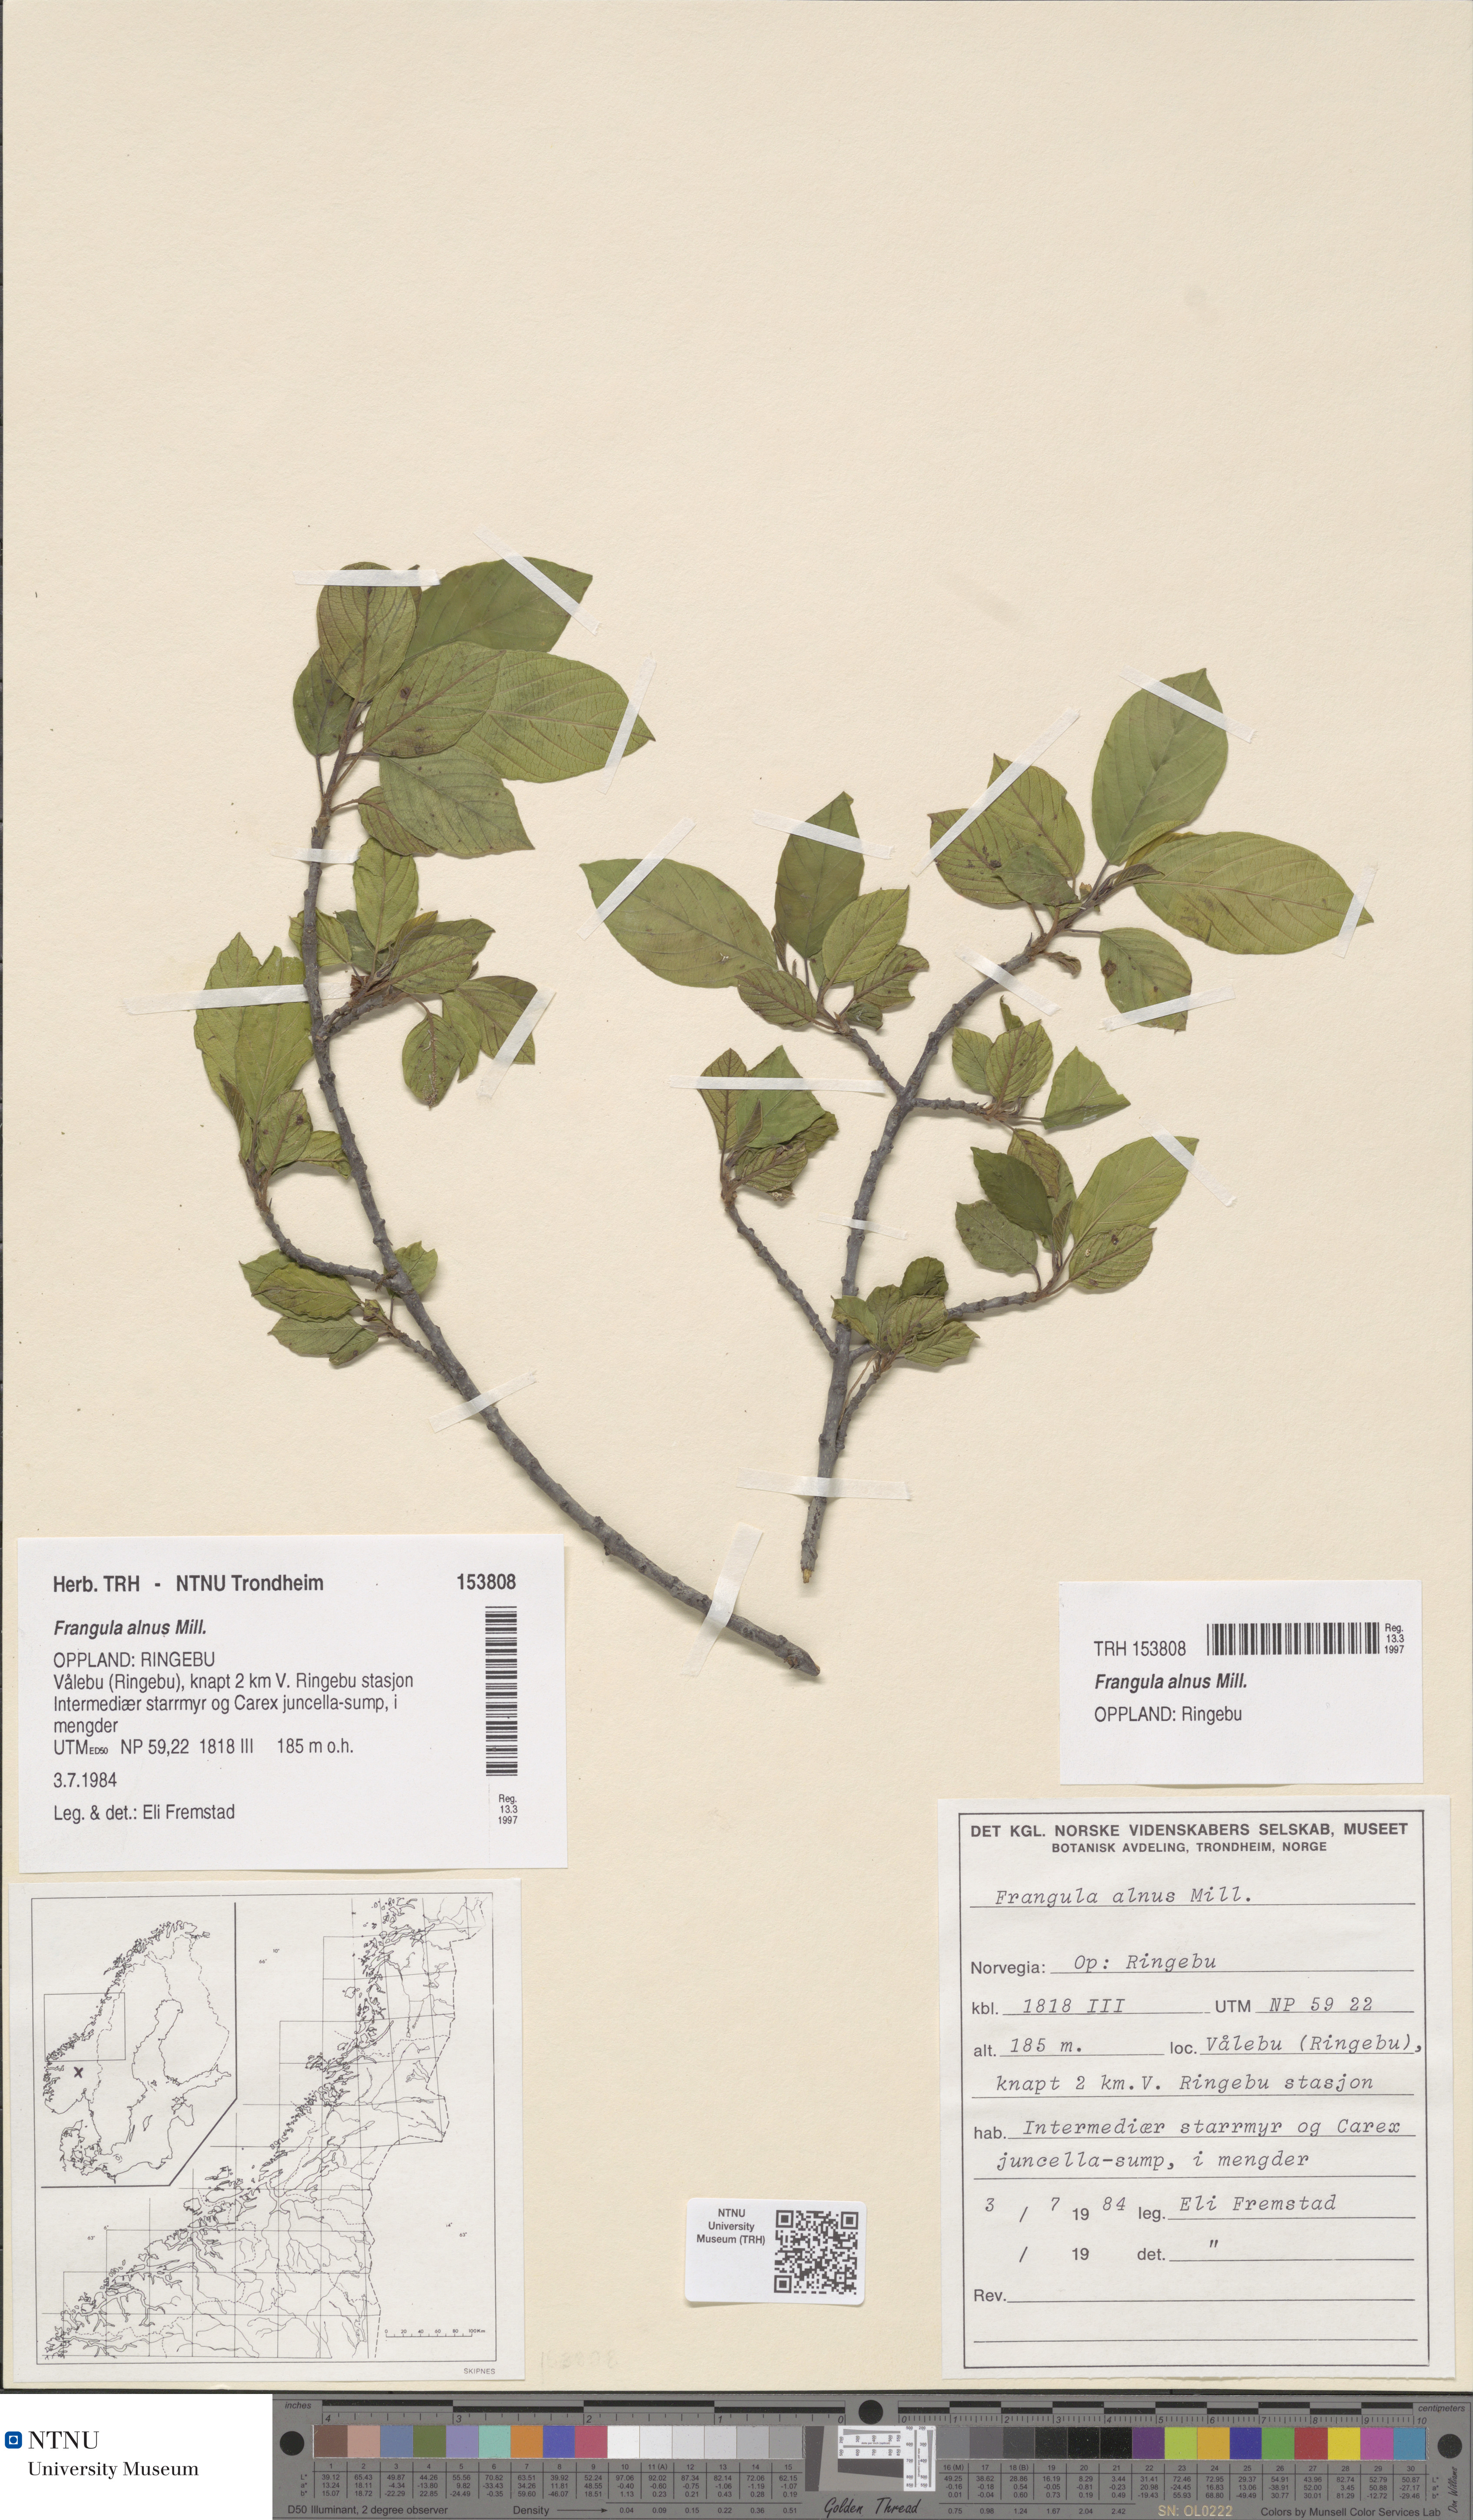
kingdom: Plantae
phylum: Tracheophyta
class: Magnoliopsida
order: Rosales
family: Rhamnaceae
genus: Frangula
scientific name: Frangula alnus
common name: Alder buckthorn
